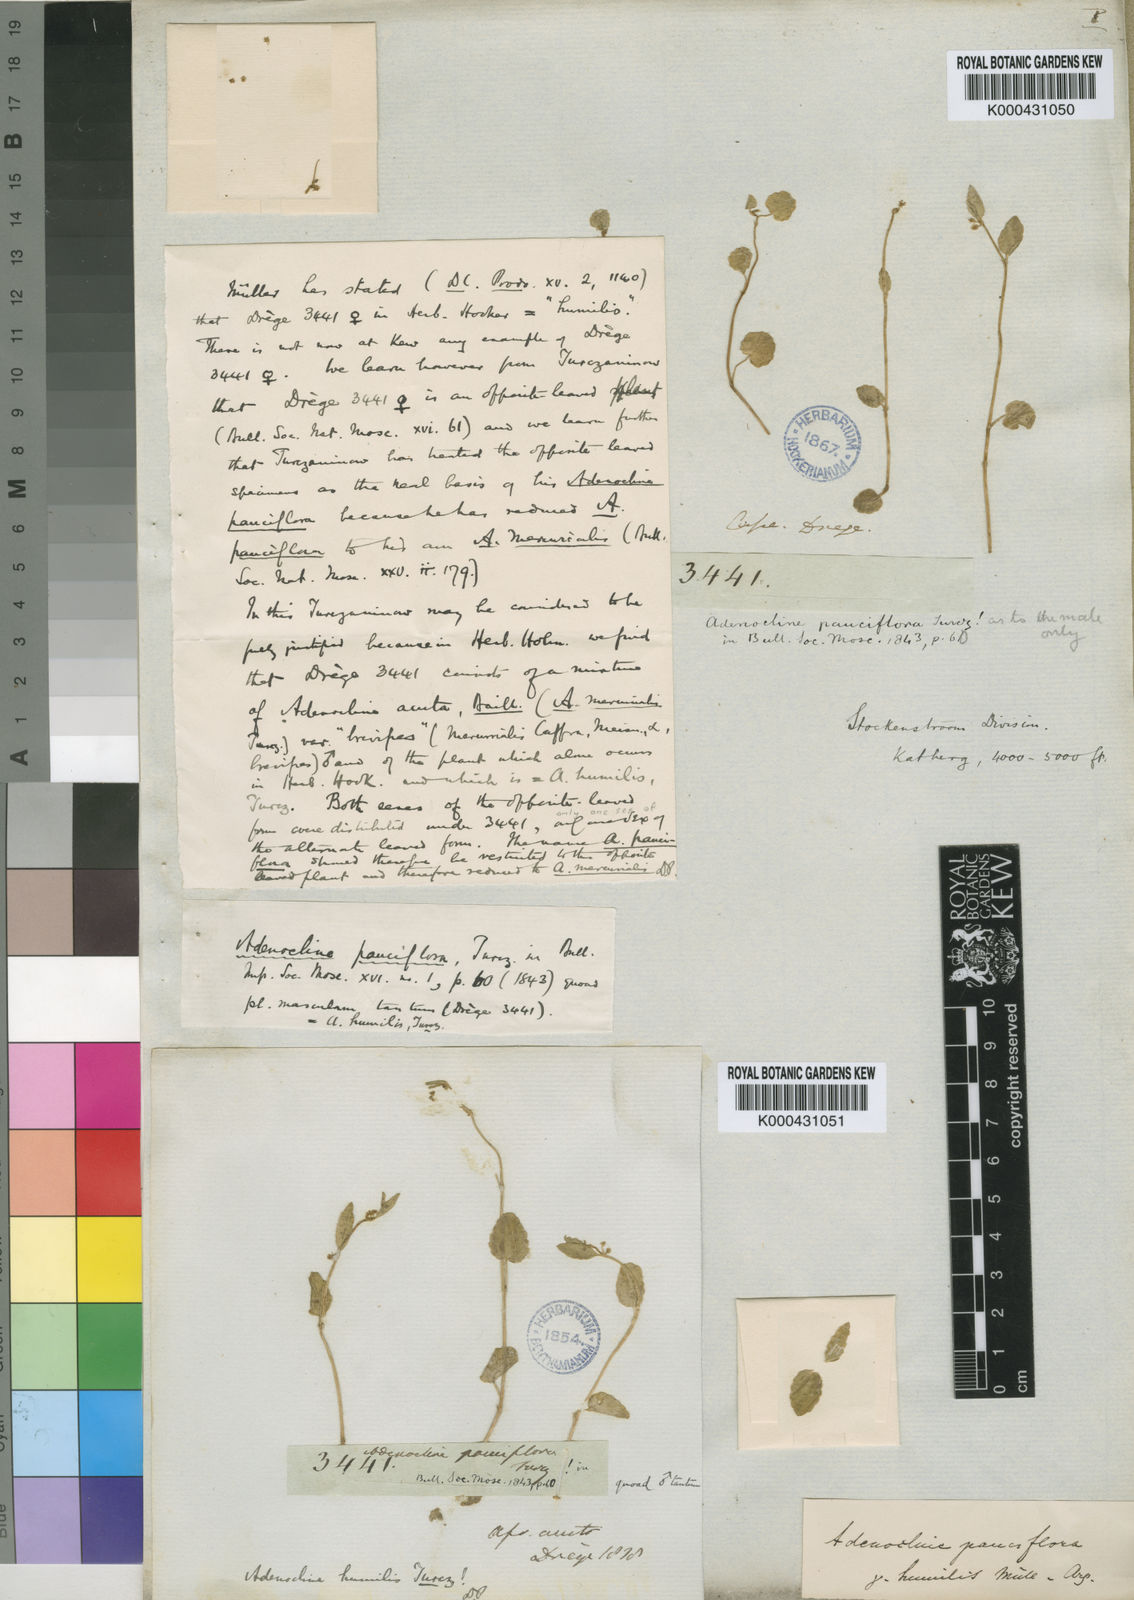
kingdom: Plantae
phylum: Tracheophyta
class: Magnoliopsida
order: Malpighiales
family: Euphorbiaceae
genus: Adenocline
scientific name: Adenocline pauciflora
